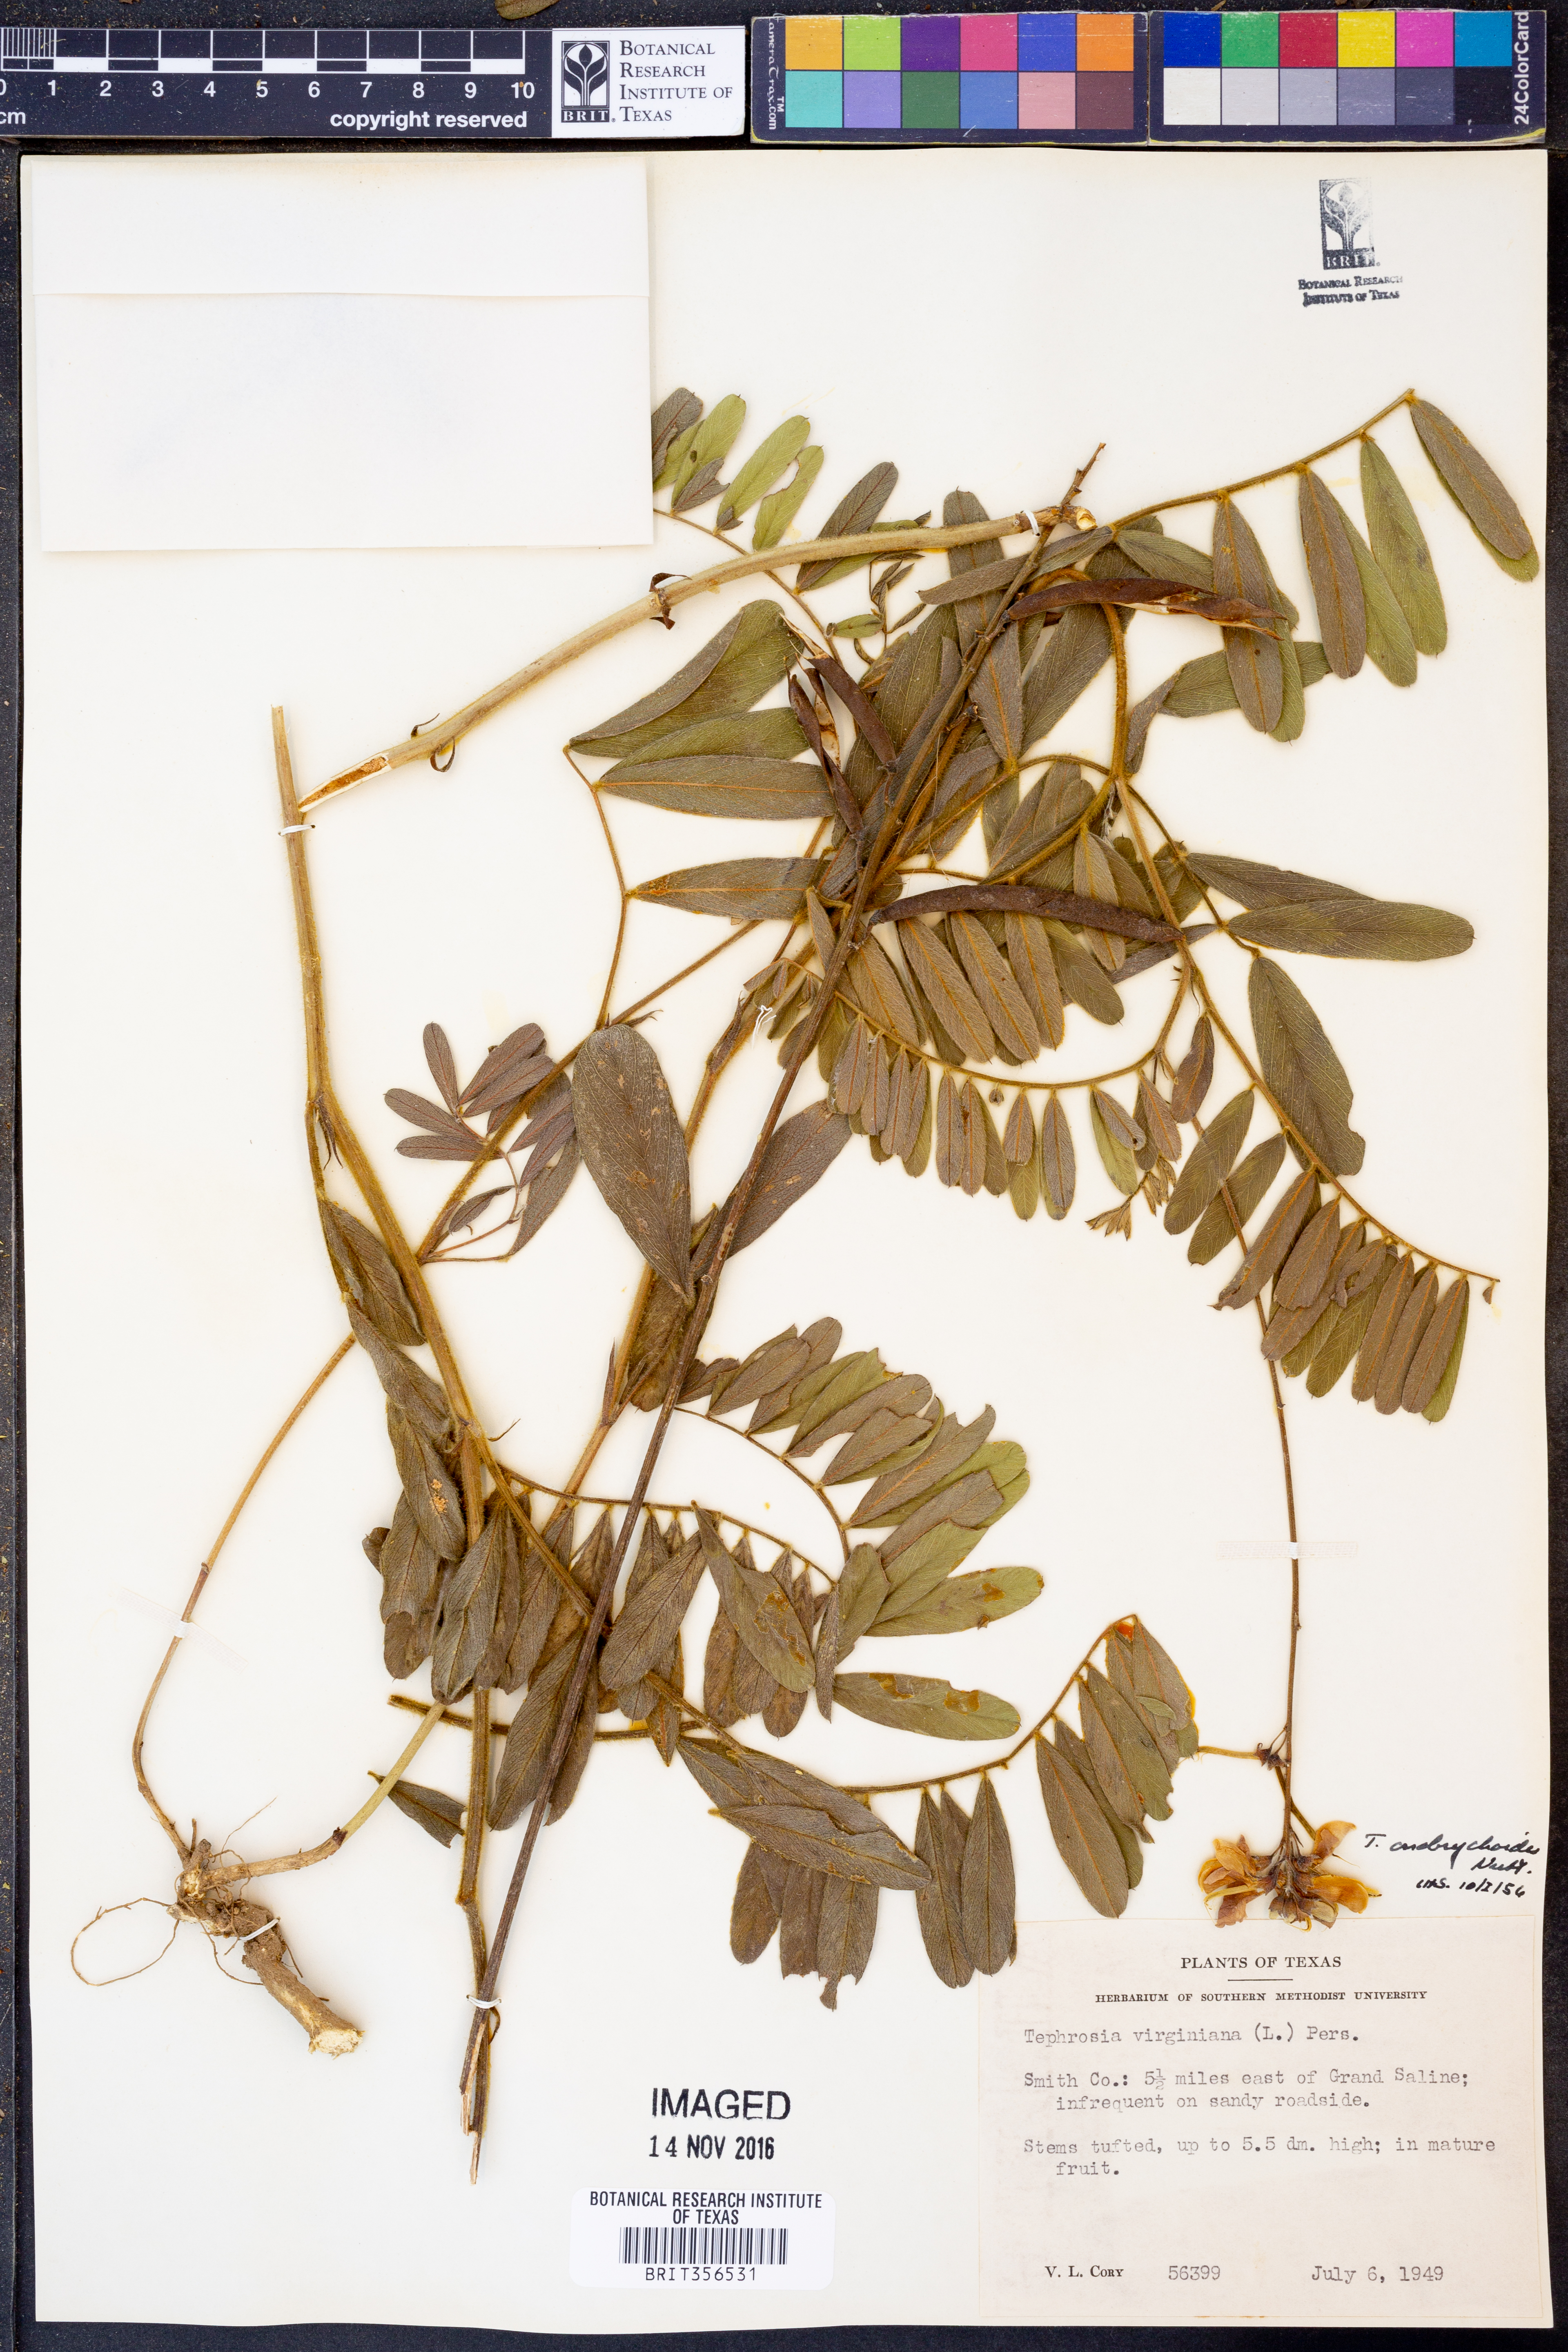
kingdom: Plantae
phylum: Tracheophyta
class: Magnoliopsida
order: Fabales
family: Fabaceae
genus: Tephrosia
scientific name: Tephrosia onobrychoides
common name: Multi-bloom hoary-pea
